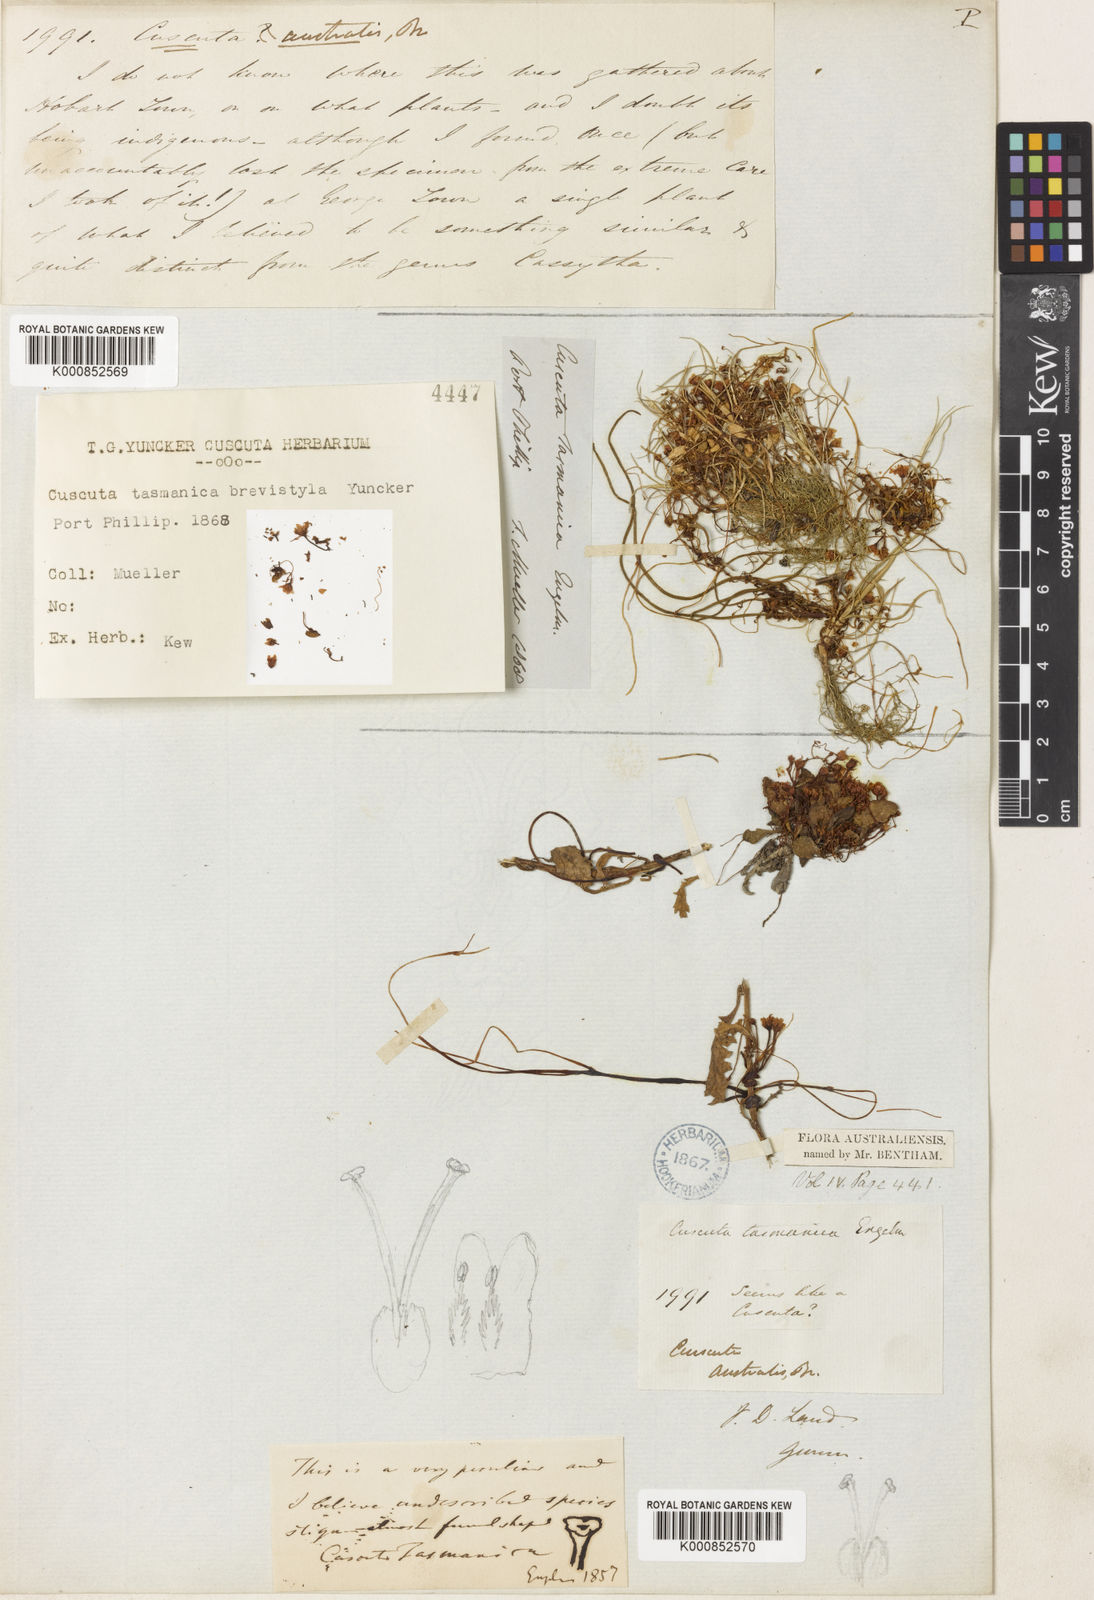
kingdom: Plantae
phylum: Tracheophyta
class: Magnoliopsida
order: Solanales
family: Convolvulaceae
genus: Cuscuta
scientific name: Cuscuta tasmanica
